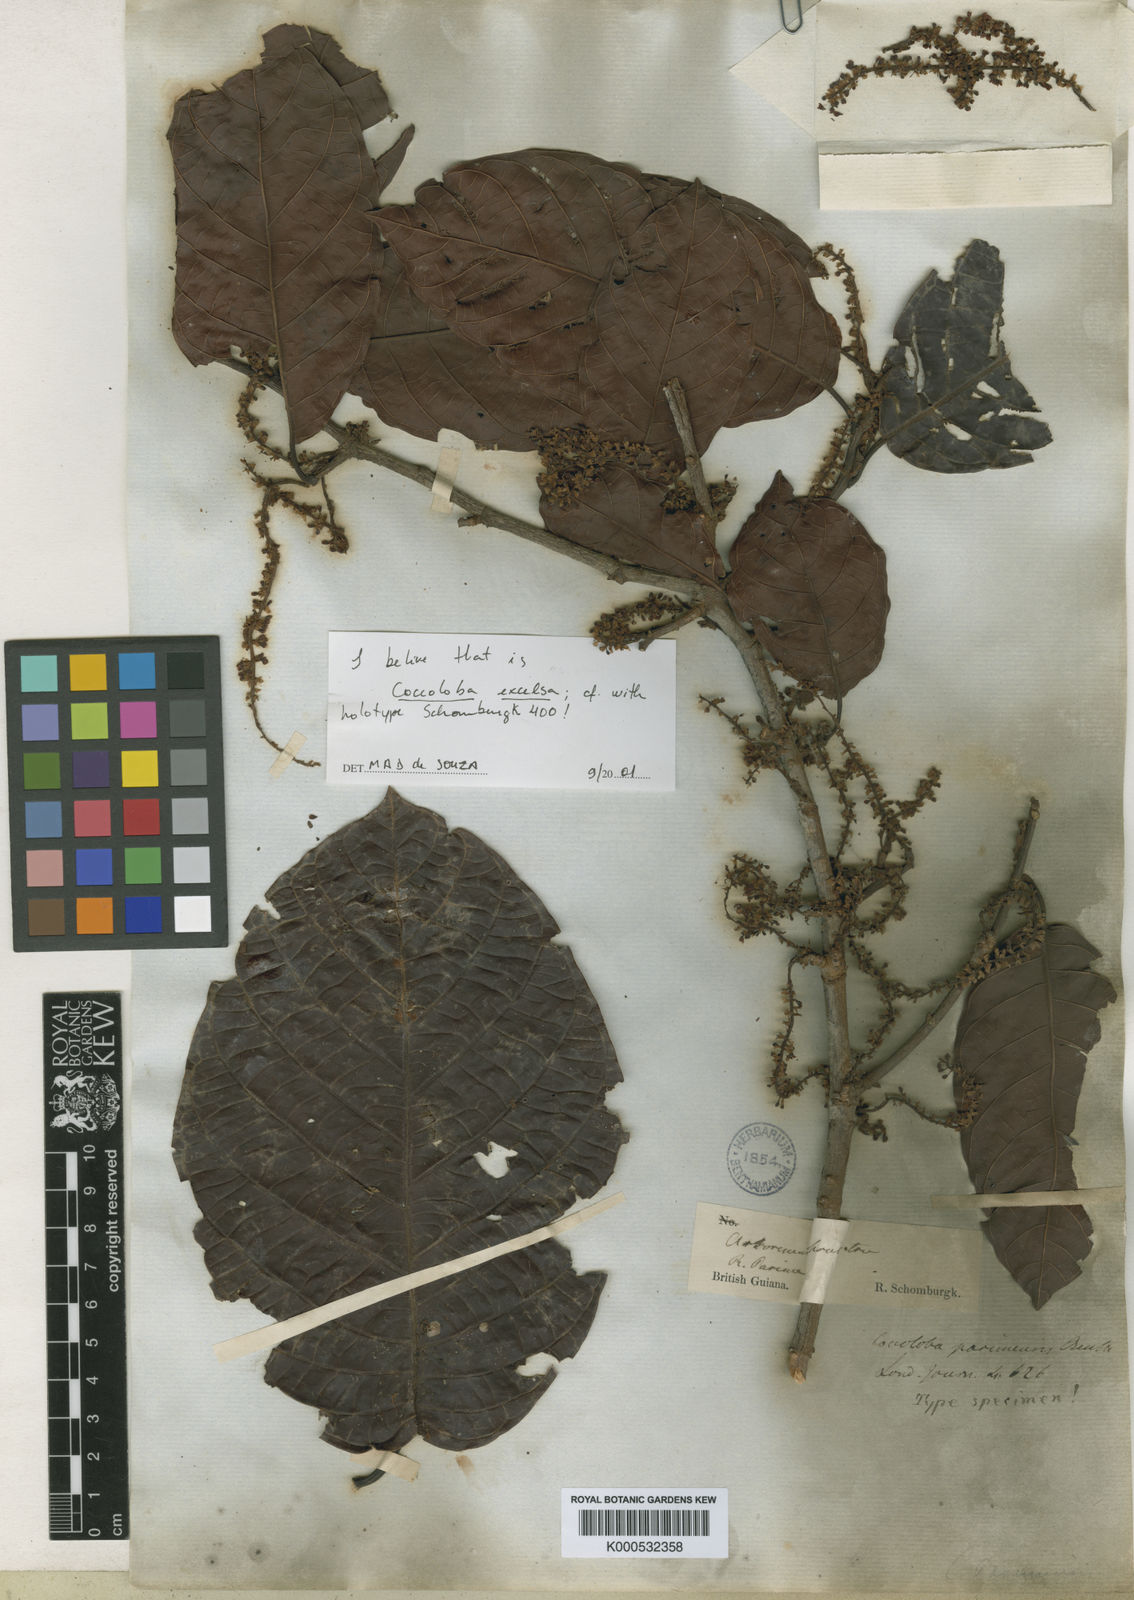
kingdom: Plantae
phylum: Tracheophyta
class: Magnoliopsida
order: Caryophyllales
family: Polygonaceae
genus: Coccoloba
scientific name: Coccoloba excelsa
